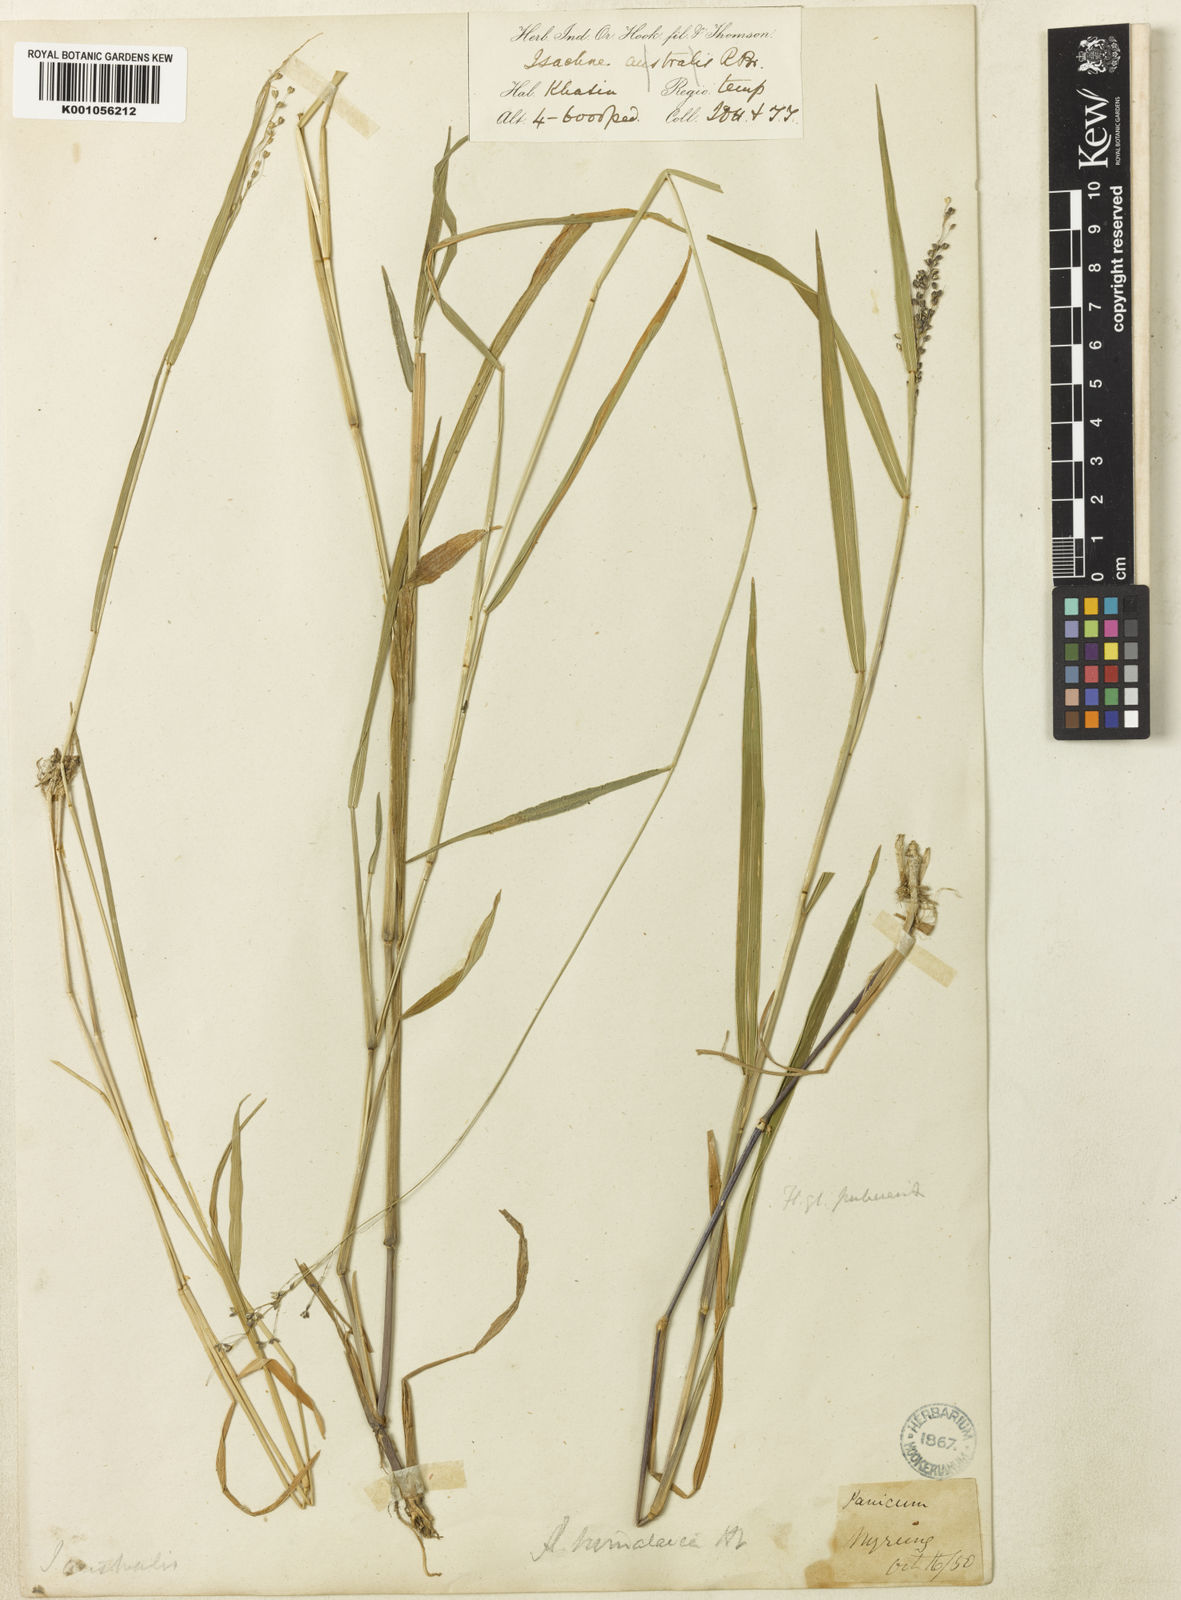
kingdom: Plantae
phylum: Tracheophyta
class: Liliopsida
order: Poales
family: Poaceae
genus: Isachne
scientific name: Isachne himalaica
